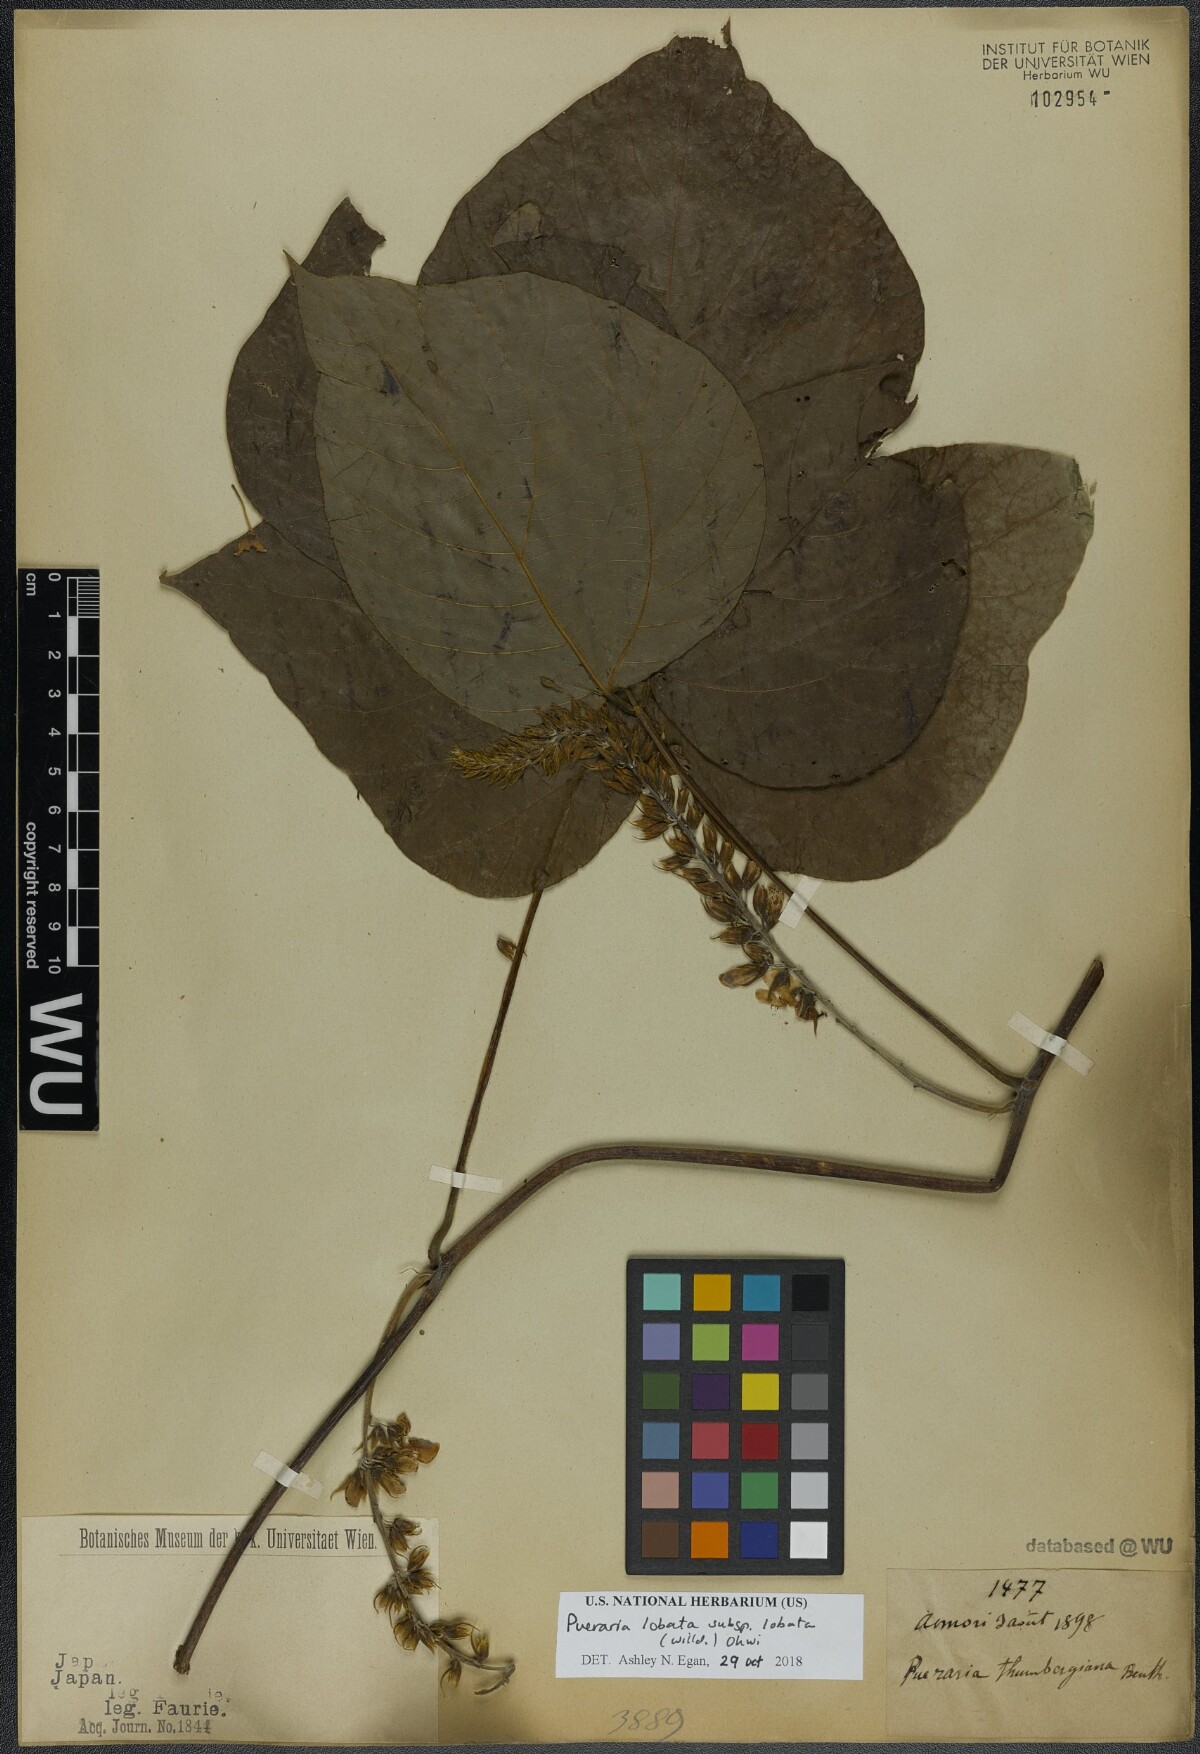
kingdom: Plantae
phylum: Tracheophyta
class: Magnoliopsida
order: Fabales
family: Fabaceae
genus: Pueraria
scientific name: Pueraria montana
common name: Kudzu
